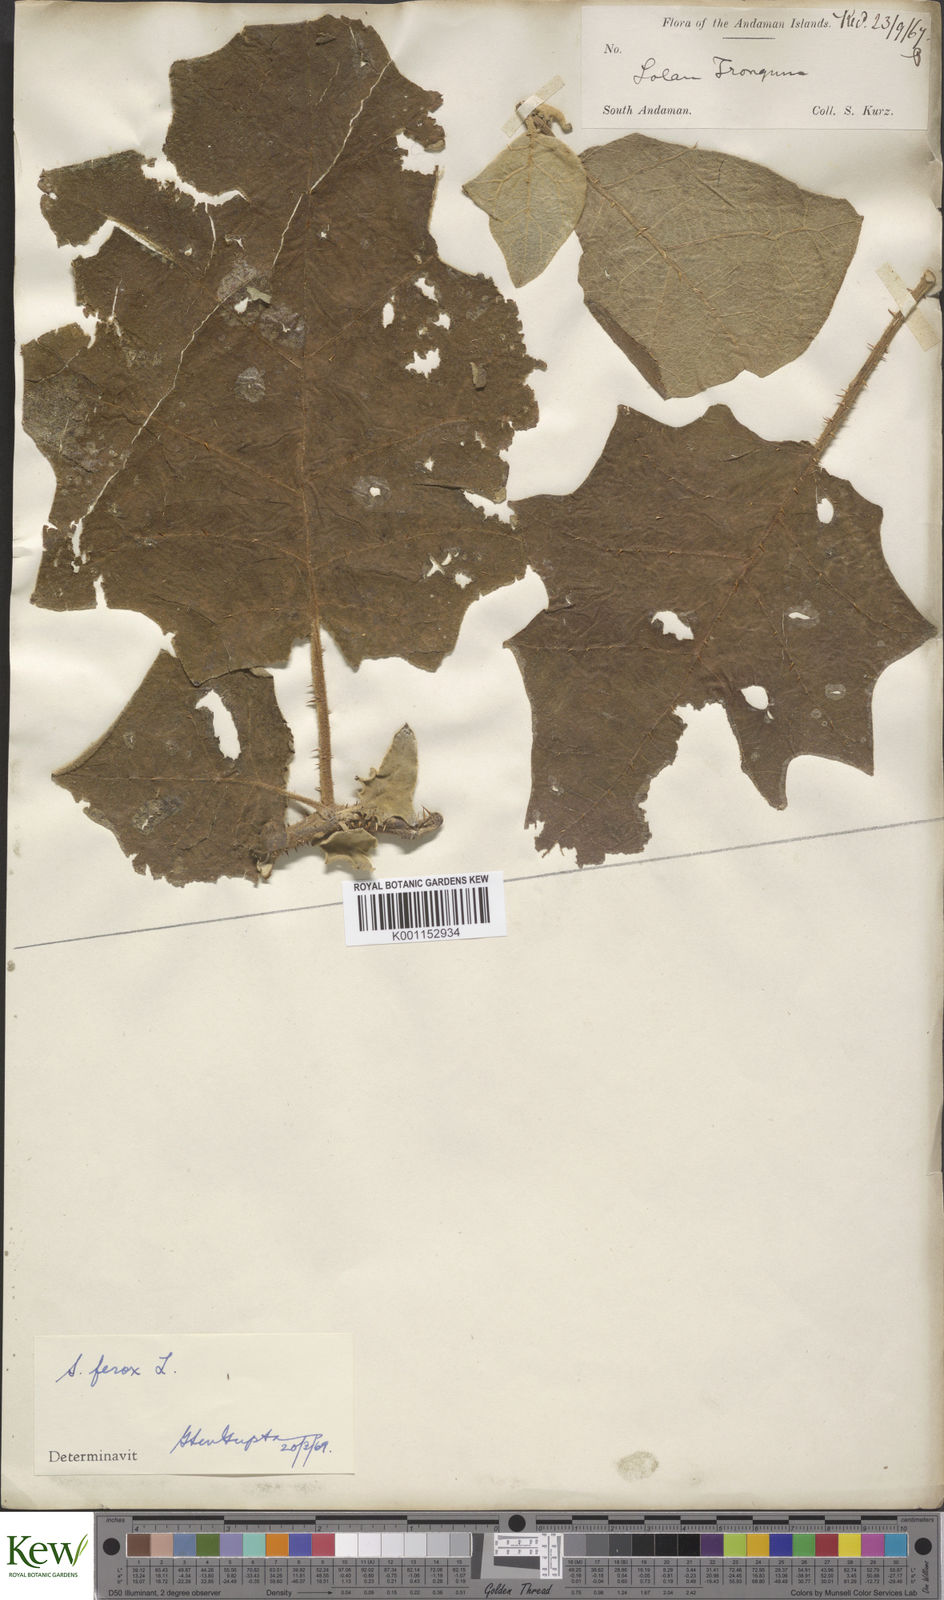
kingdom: Plantae
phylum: Tracheophyta
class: Magnoliopsida
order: Solanales
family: Solanaceae
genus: Solanum
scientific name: Solanum
